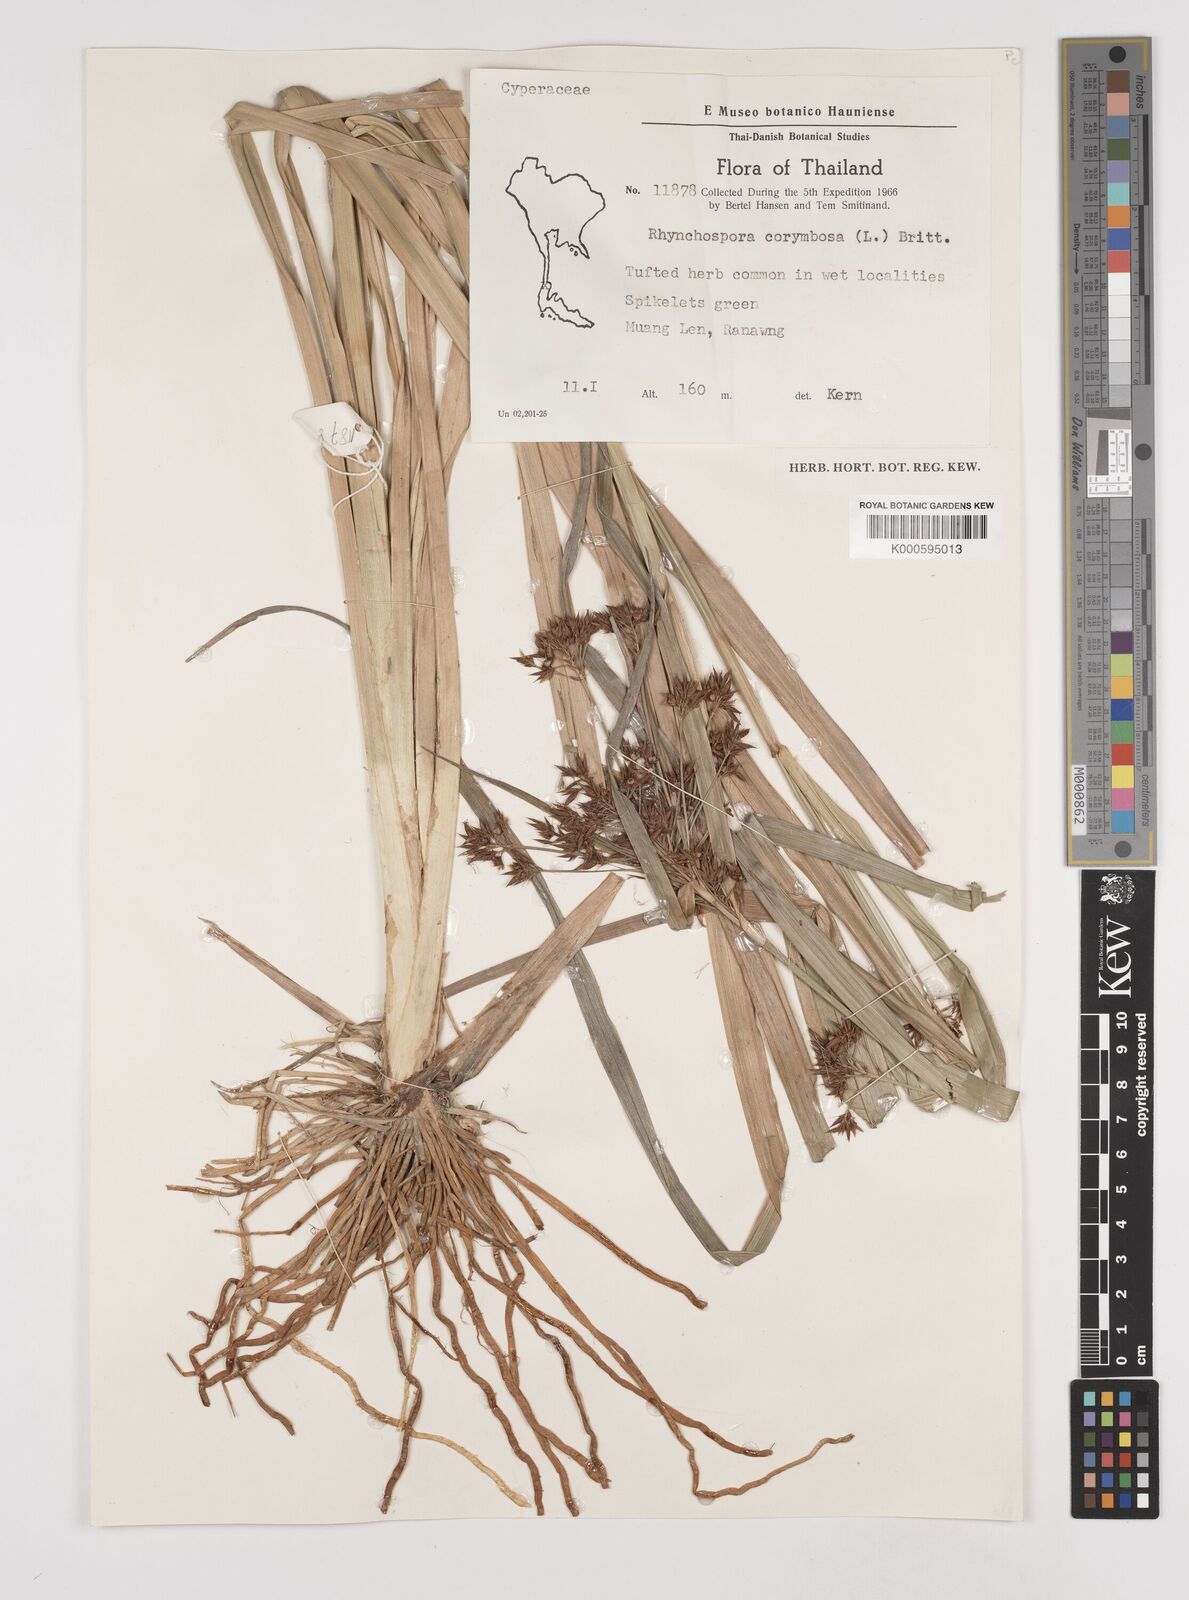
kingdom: Plantae
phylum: Tracheophyta
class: Liliopsida
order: Poales
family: Cyperaceae
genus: Rhynchospora
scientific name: Rhynchospora corymbosa
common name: Golden beak sedge
